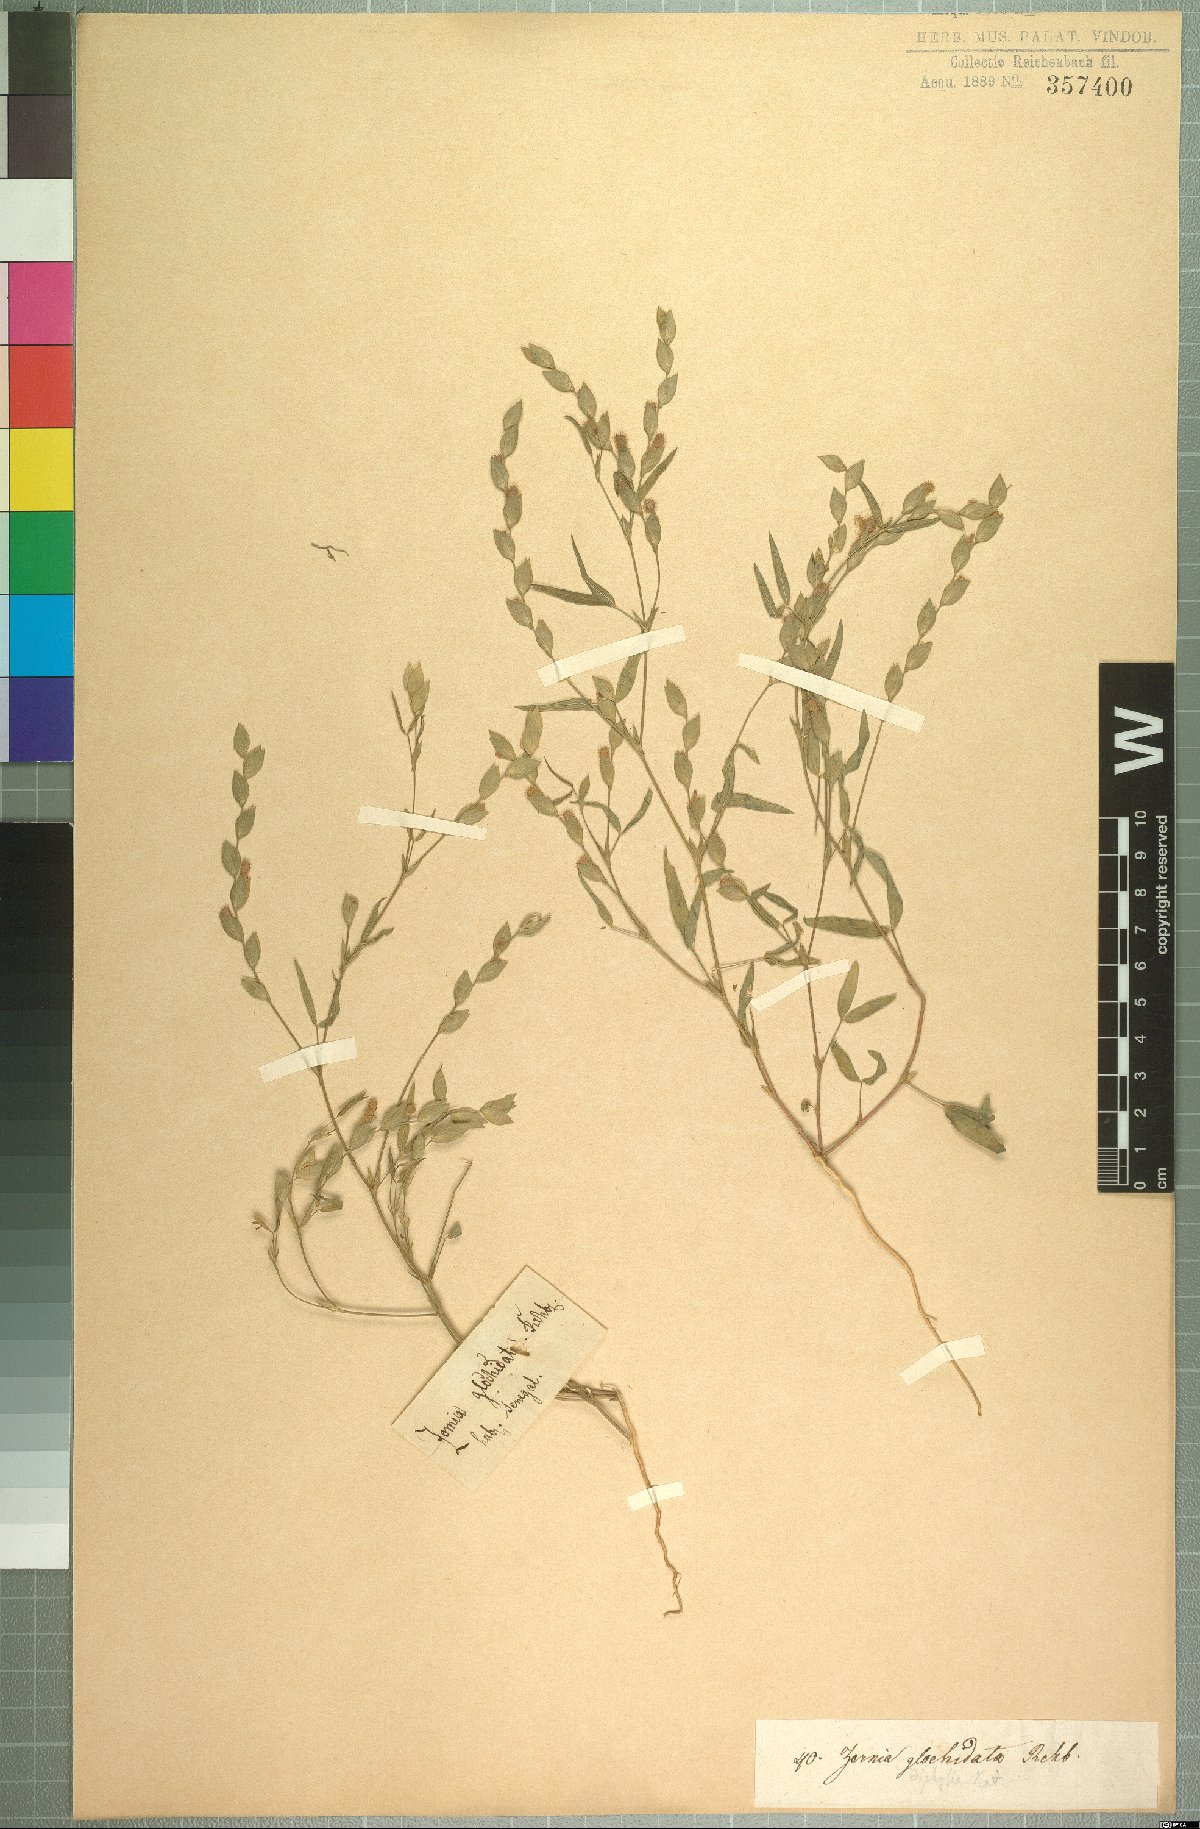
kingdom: Plantae
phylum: Tracheophyta
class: Magnoliopsida
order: Fabales
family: Fabaceae
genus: Zornia
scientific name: Zornia glochidiata
